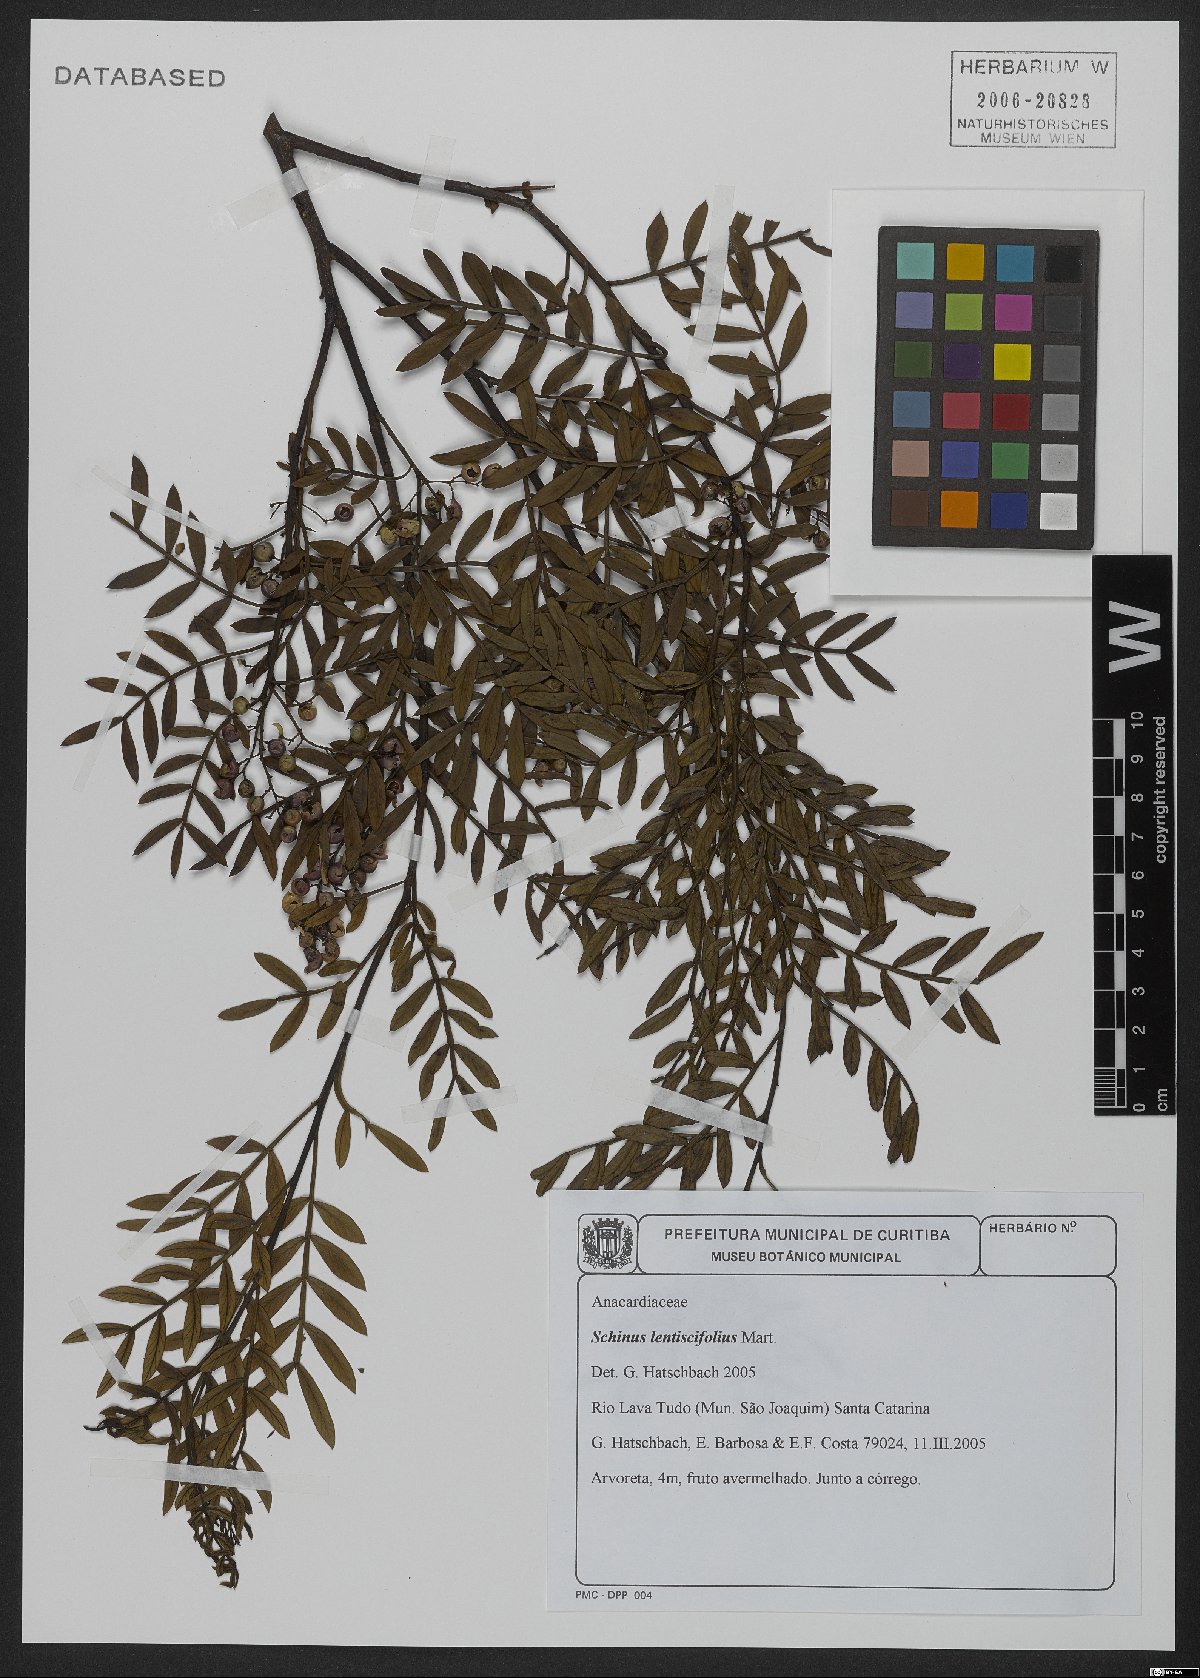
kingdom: Plantae
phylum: Tracheophyta
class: Magnoliopsida
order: Sapindales
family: Anacardiaceae
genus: Schinus
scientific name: Schinus lentiscifolia
